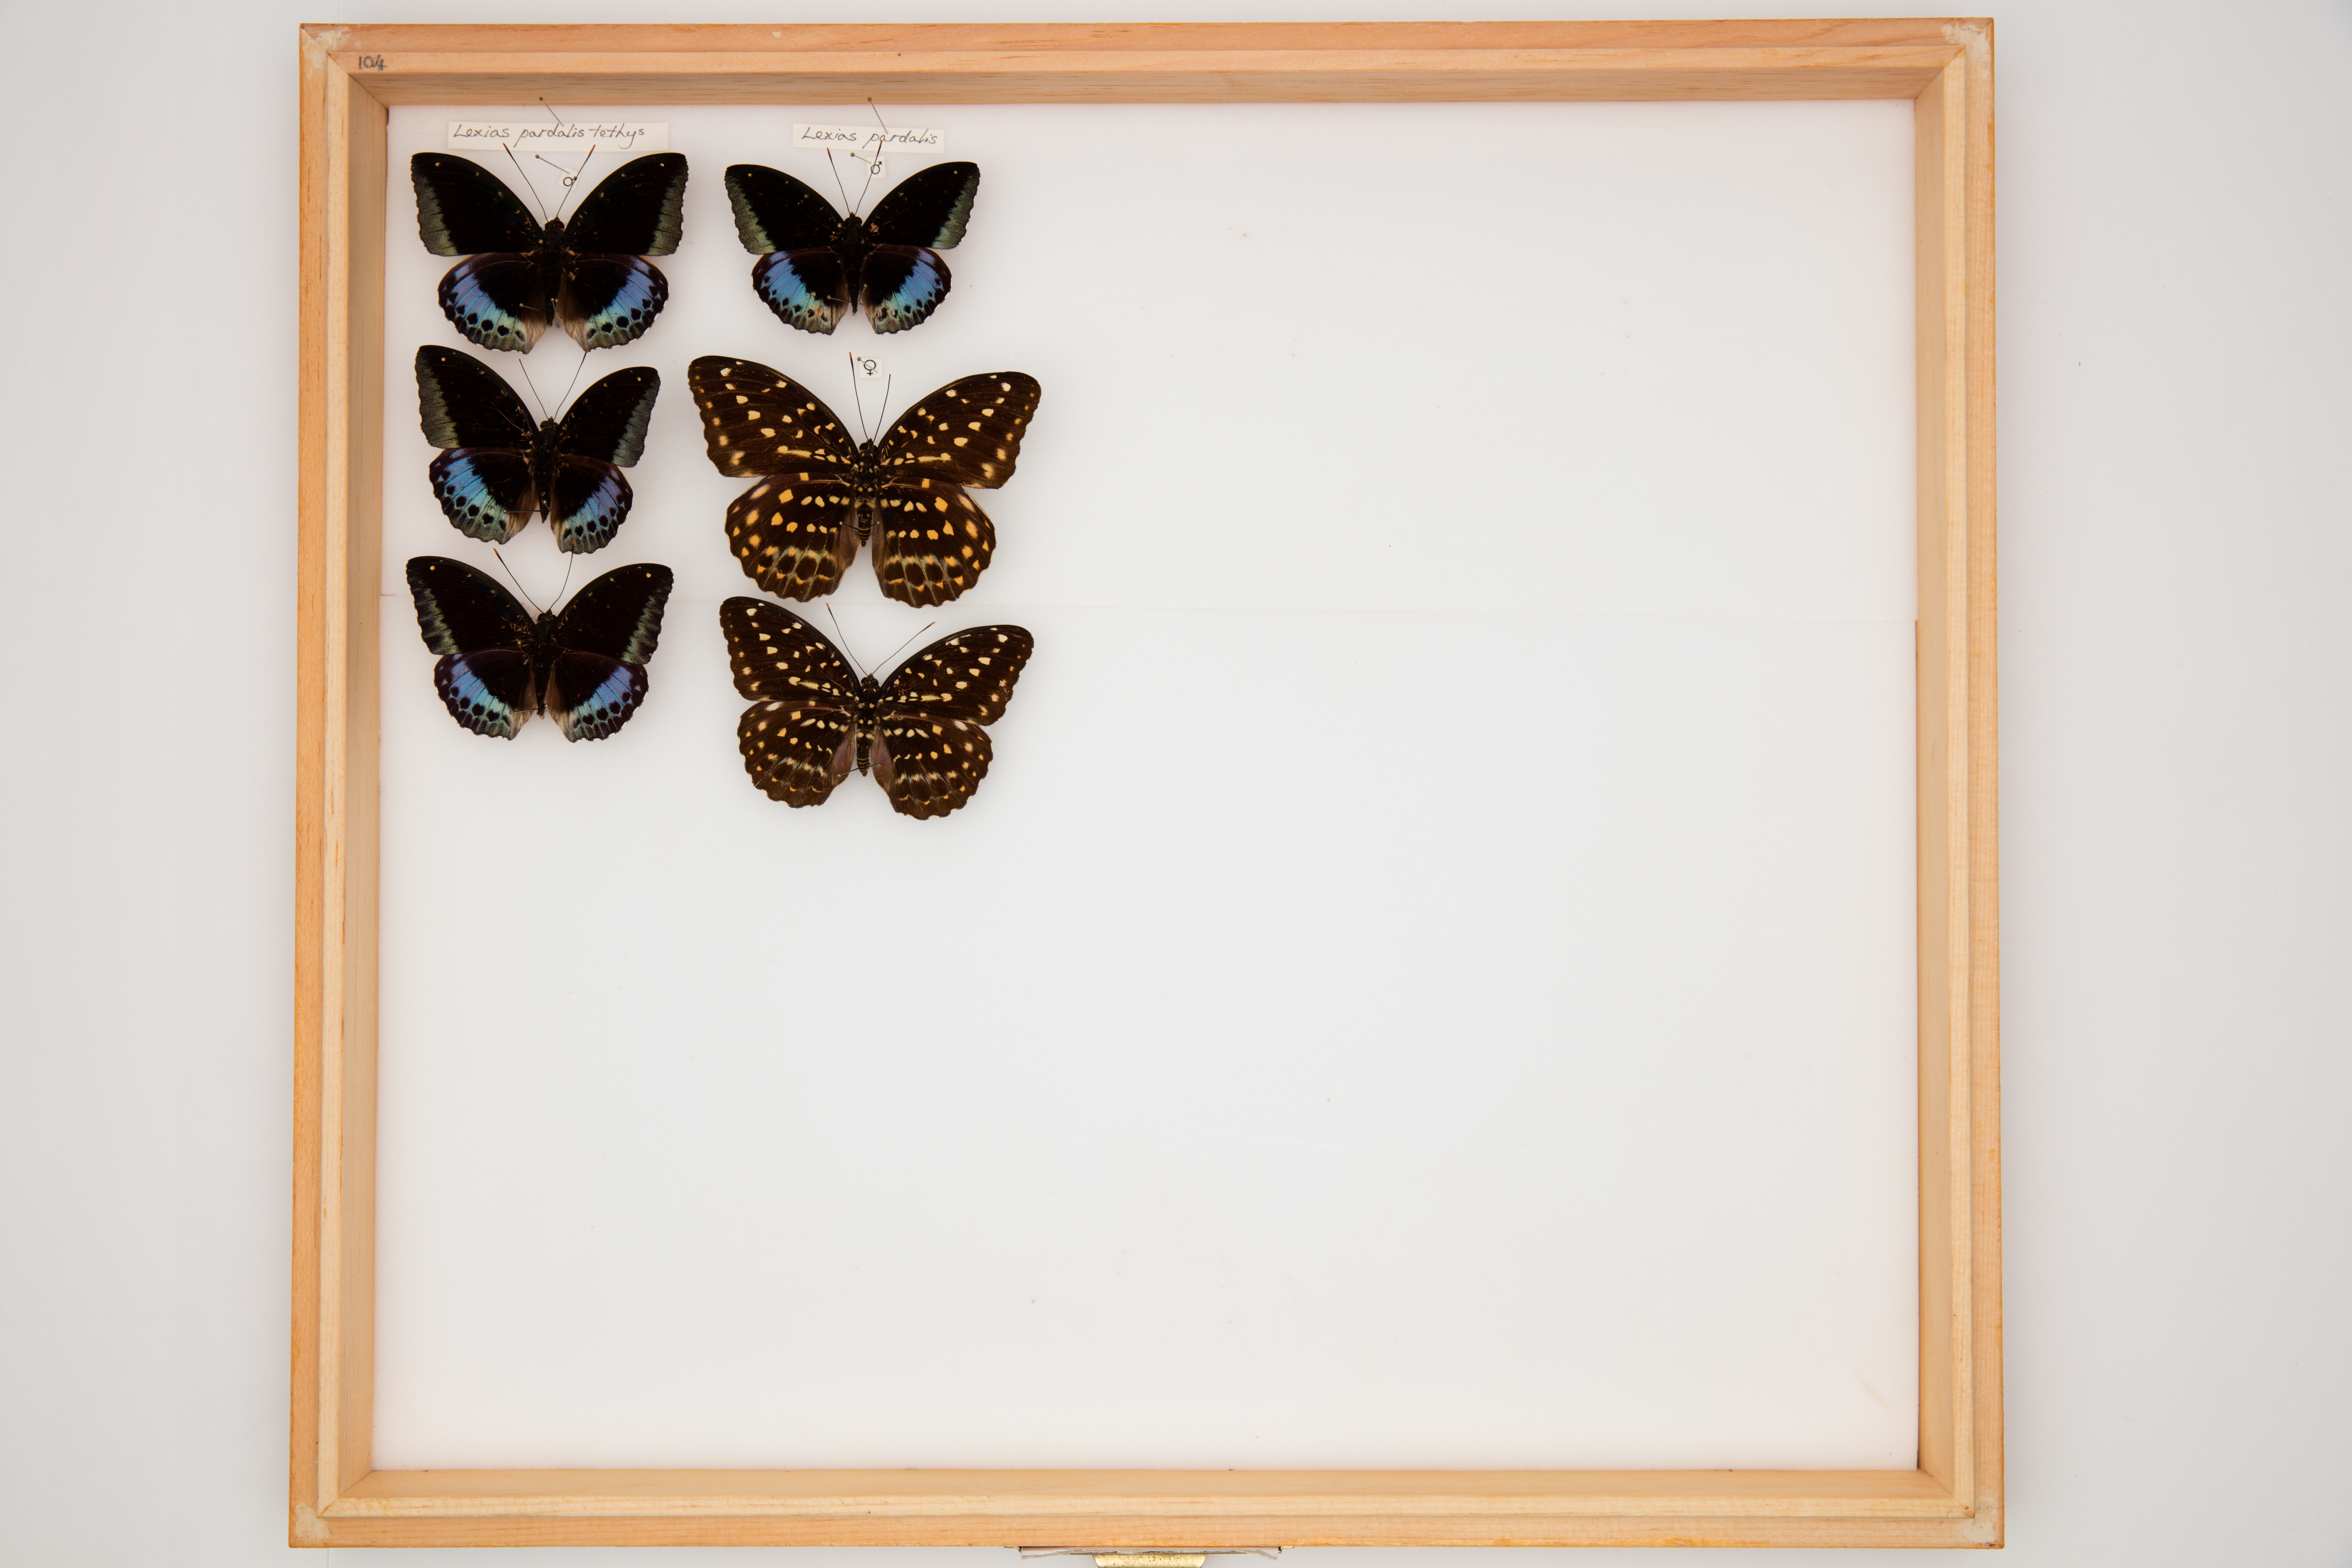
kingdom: Animalia
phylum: Arthropoda
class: Insecta
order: Lepidoptera
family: Nymphalidae
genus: Lexias
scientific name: Lexias pardalis
